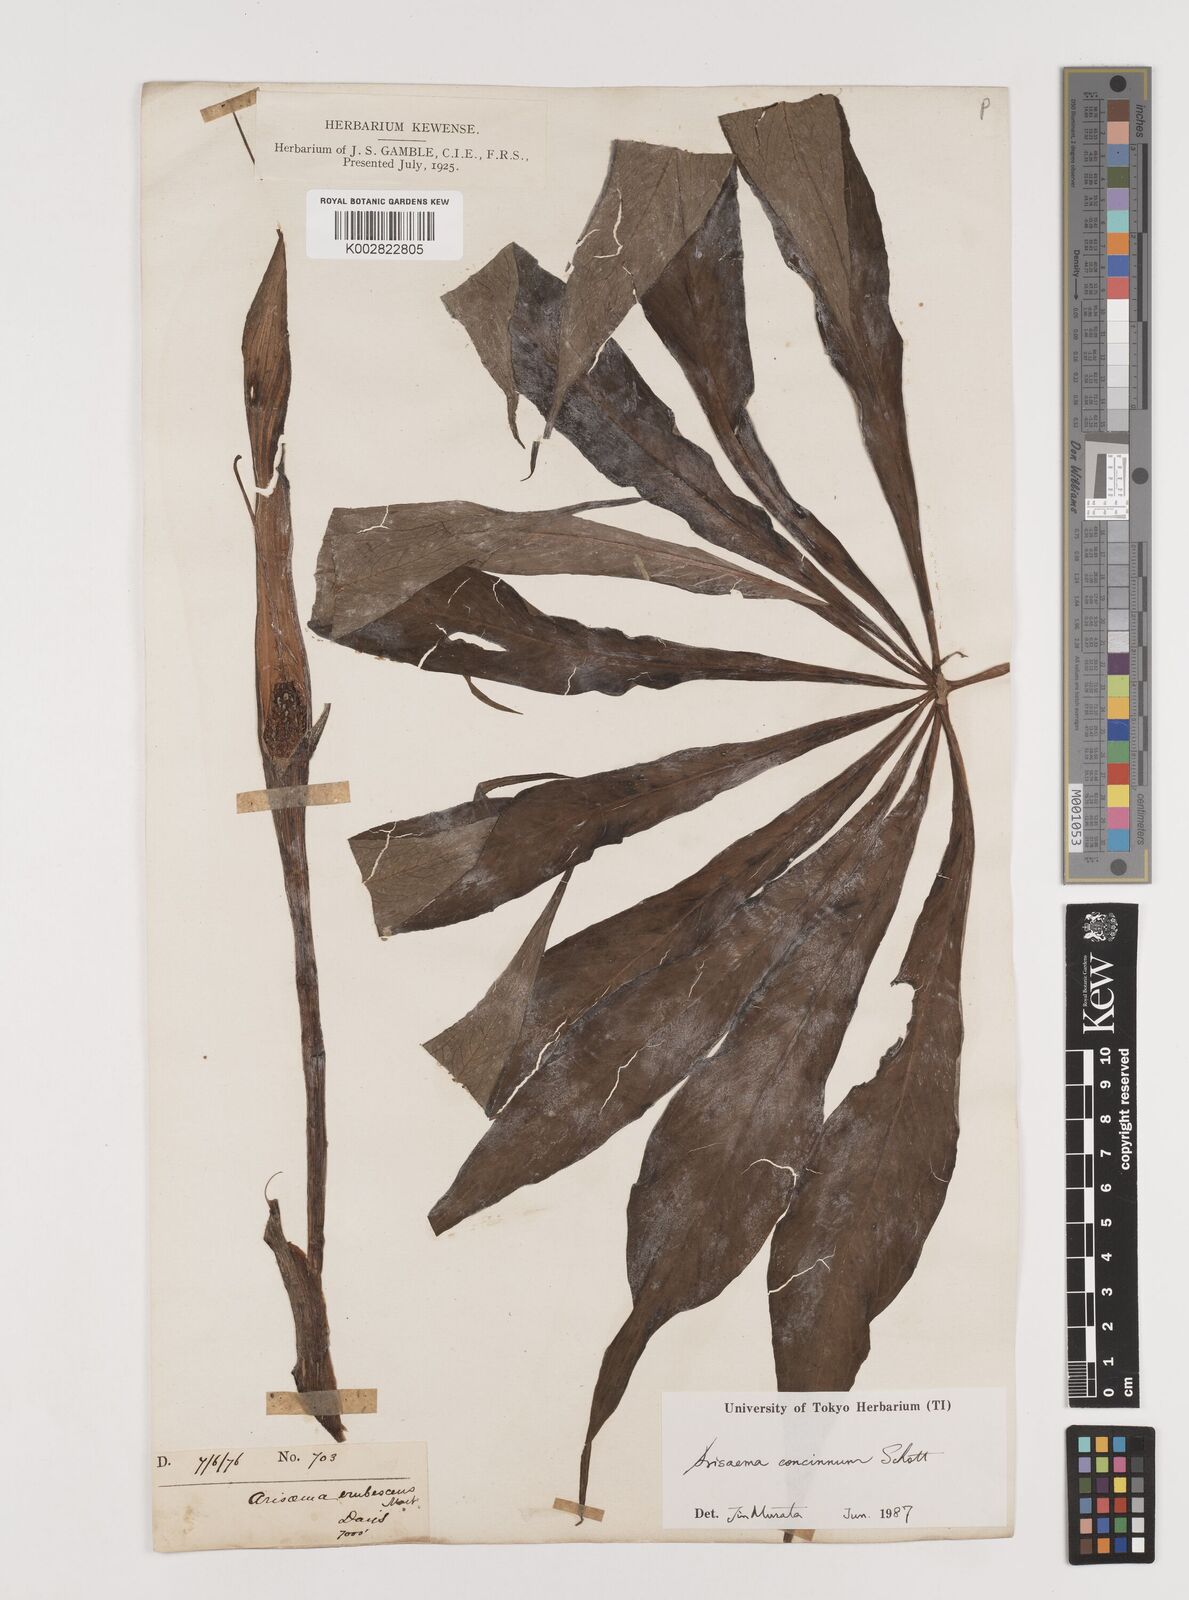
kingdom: Plantae
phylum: Tracheophyta
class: Liliopsida
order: Alismatales
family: Araceae
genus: Arisaema
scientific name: Arisaema concinnum
